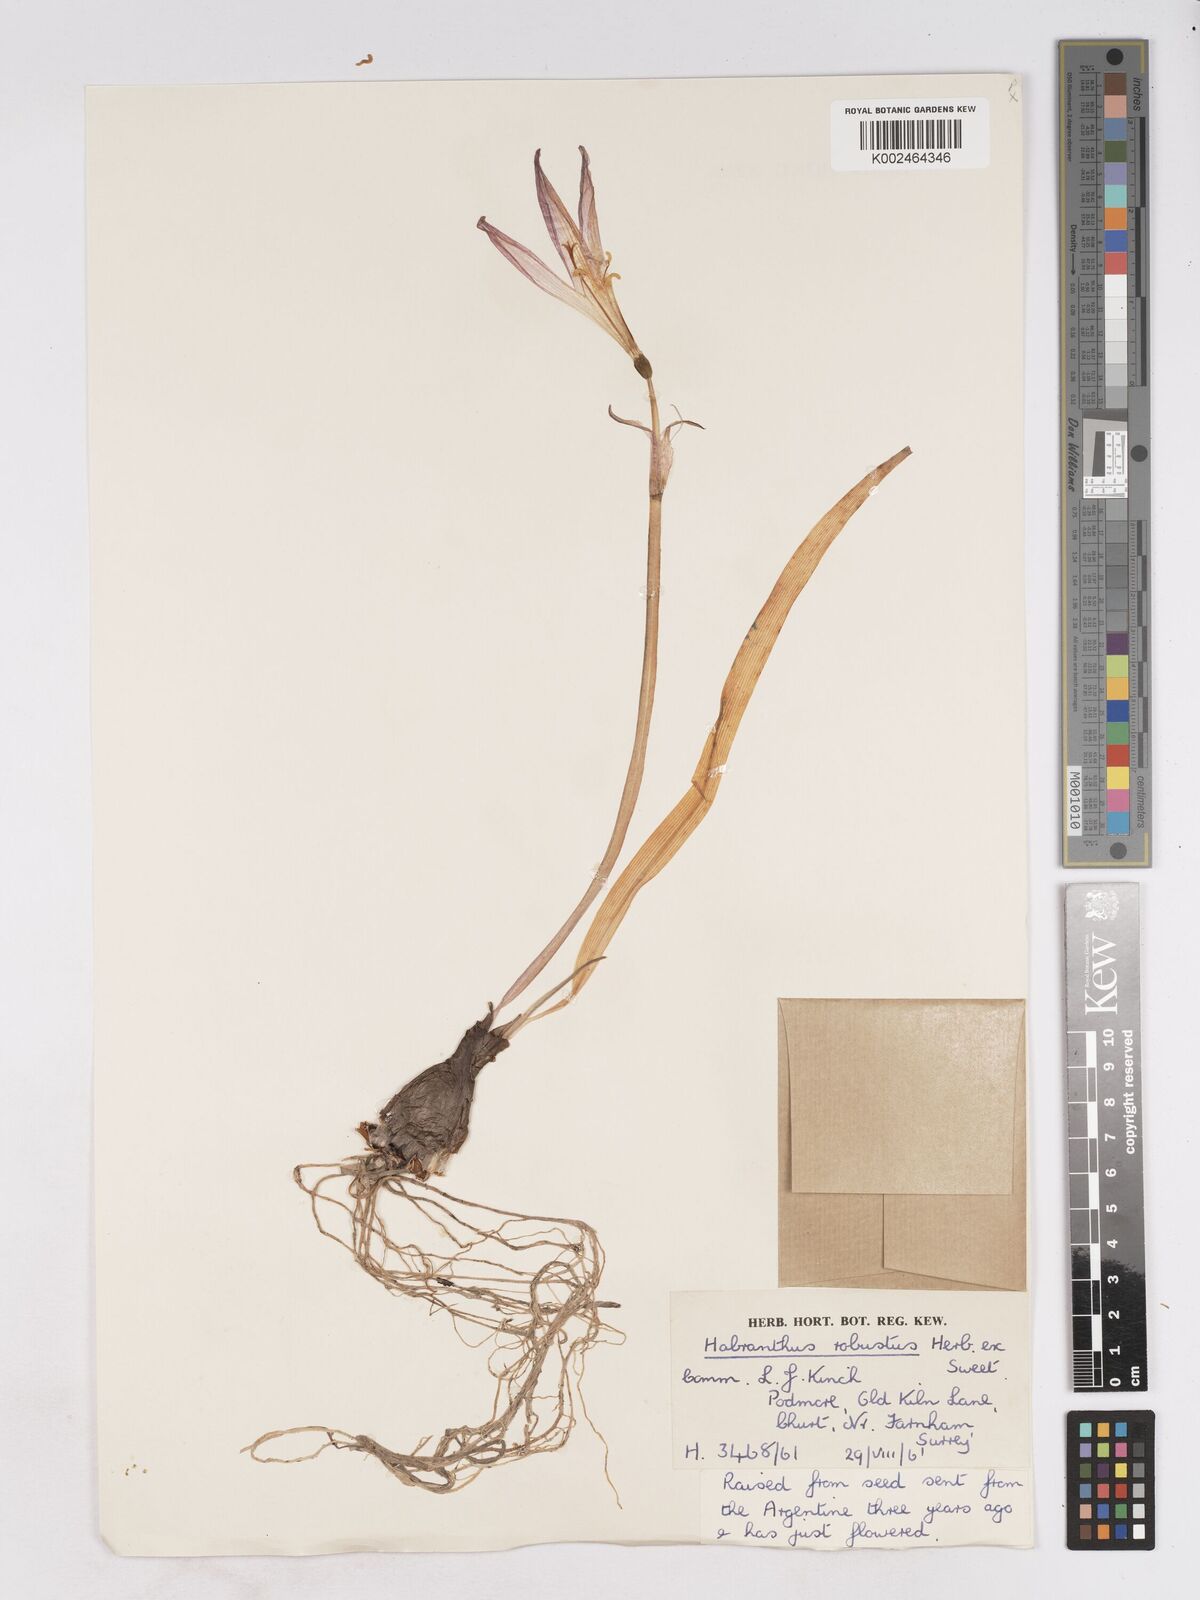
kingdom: Plantae
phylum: Tracheophyta
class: Liliopsida
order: Asparagales
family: Amaryllidaceae
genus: Zephyranthes
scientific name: Zephyranthes robusta
